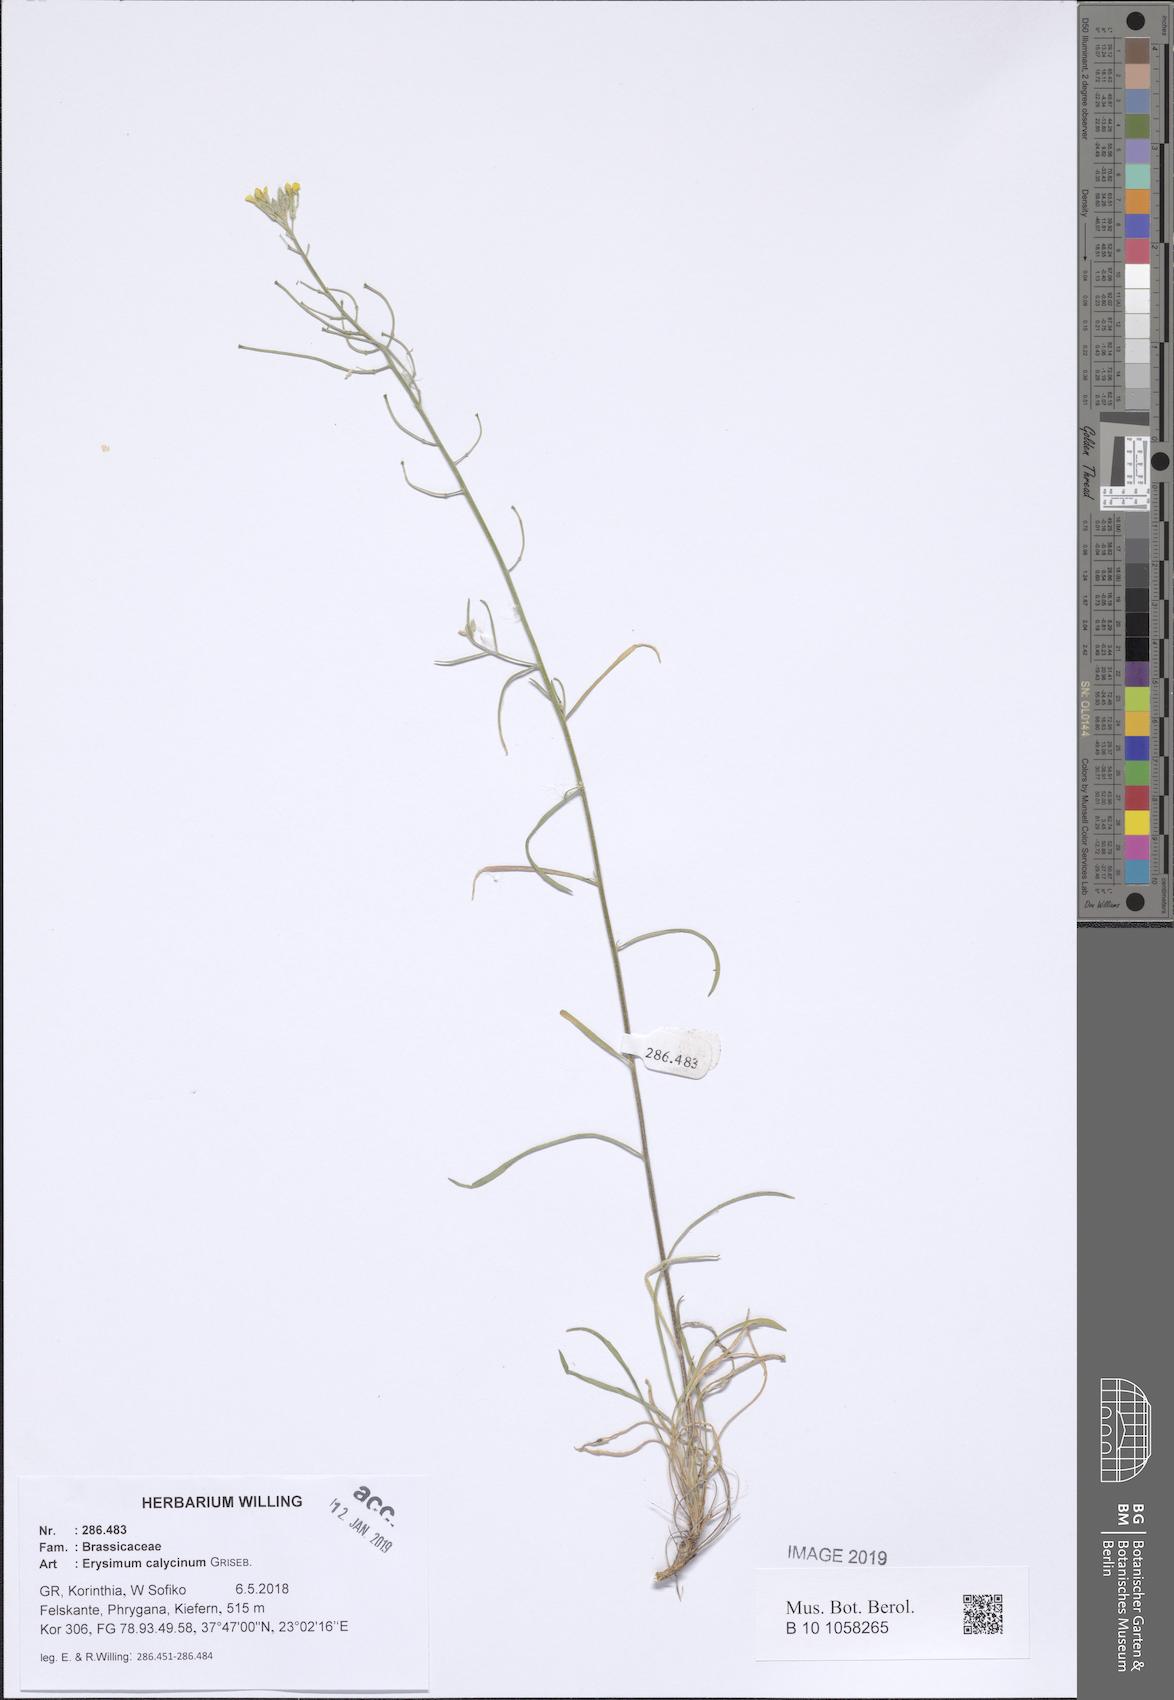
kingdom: Plantae
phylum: Tracheophyta
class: Magnoliopsida
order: Brassicales
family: Brassicaceae
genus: Erysimum
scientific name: Erysimum calycinum
